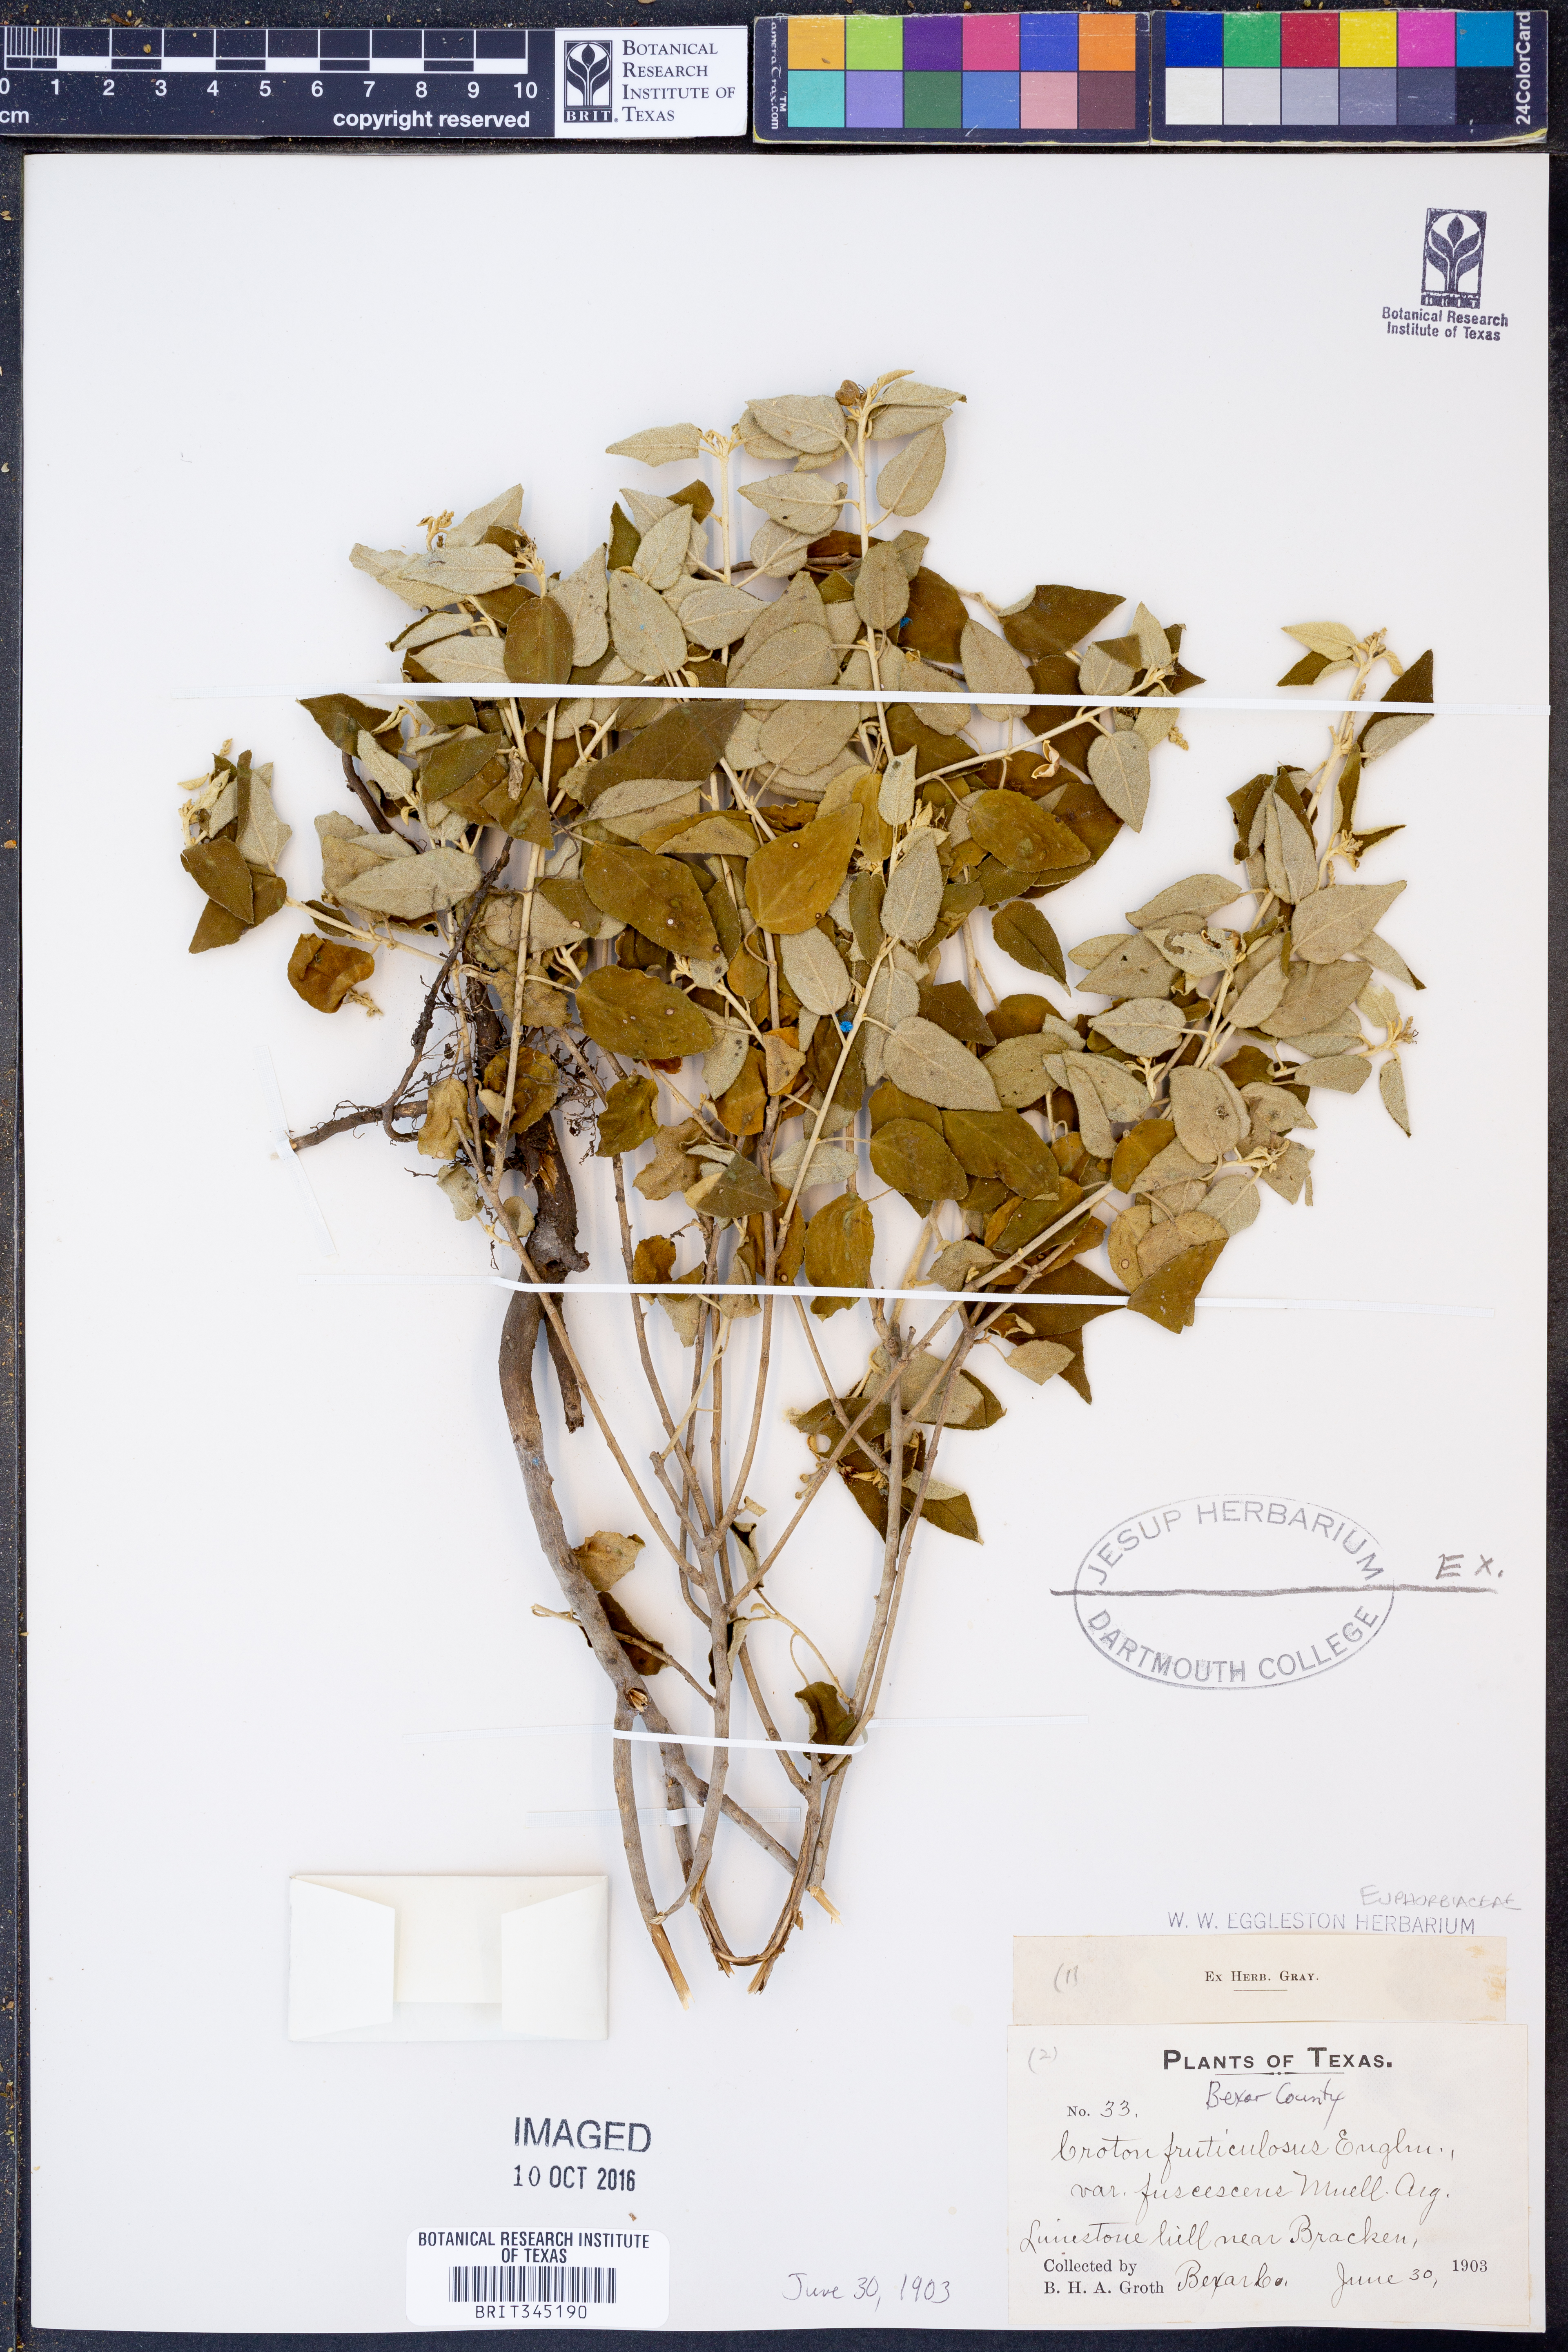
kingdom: Plantae
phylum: Tracheophyta
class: Magnoliopsida
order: Malpighiales
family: Euphorbiaceae
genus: Croton
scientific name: Croton fruticulosus
